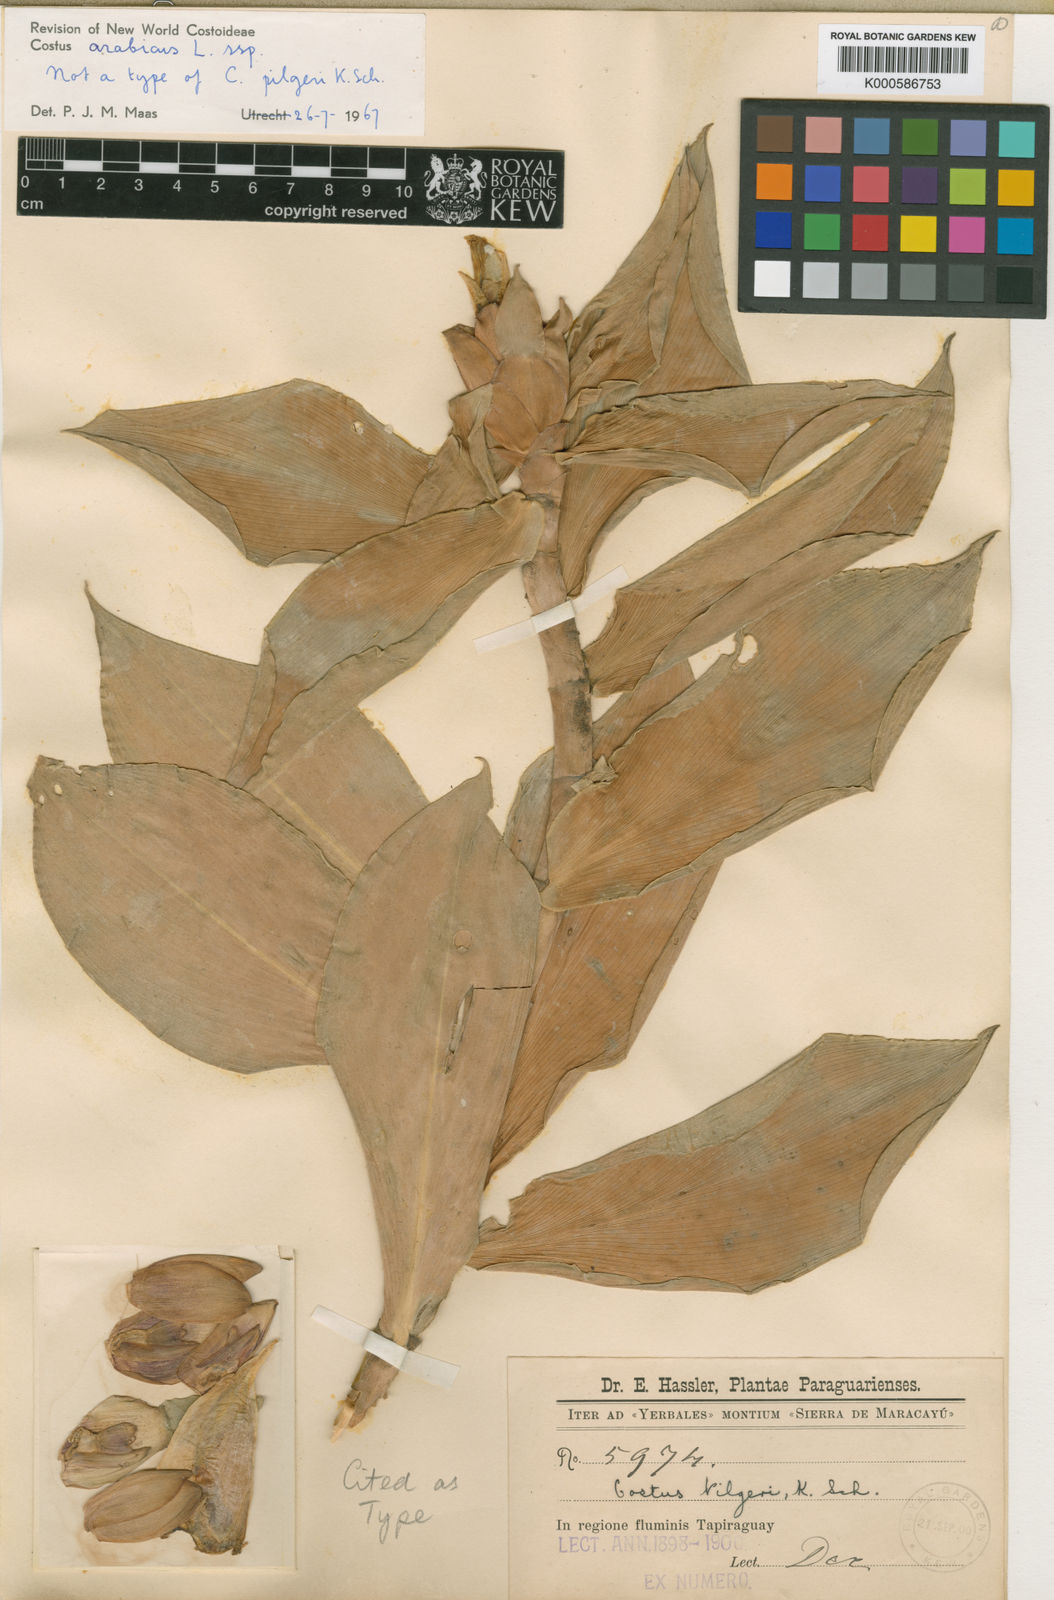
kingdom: Plantae
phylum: Tracheophyta
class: Liliopsida
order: Zingiberales
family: Costaceae
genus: Costus
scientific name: Costus arabicus
